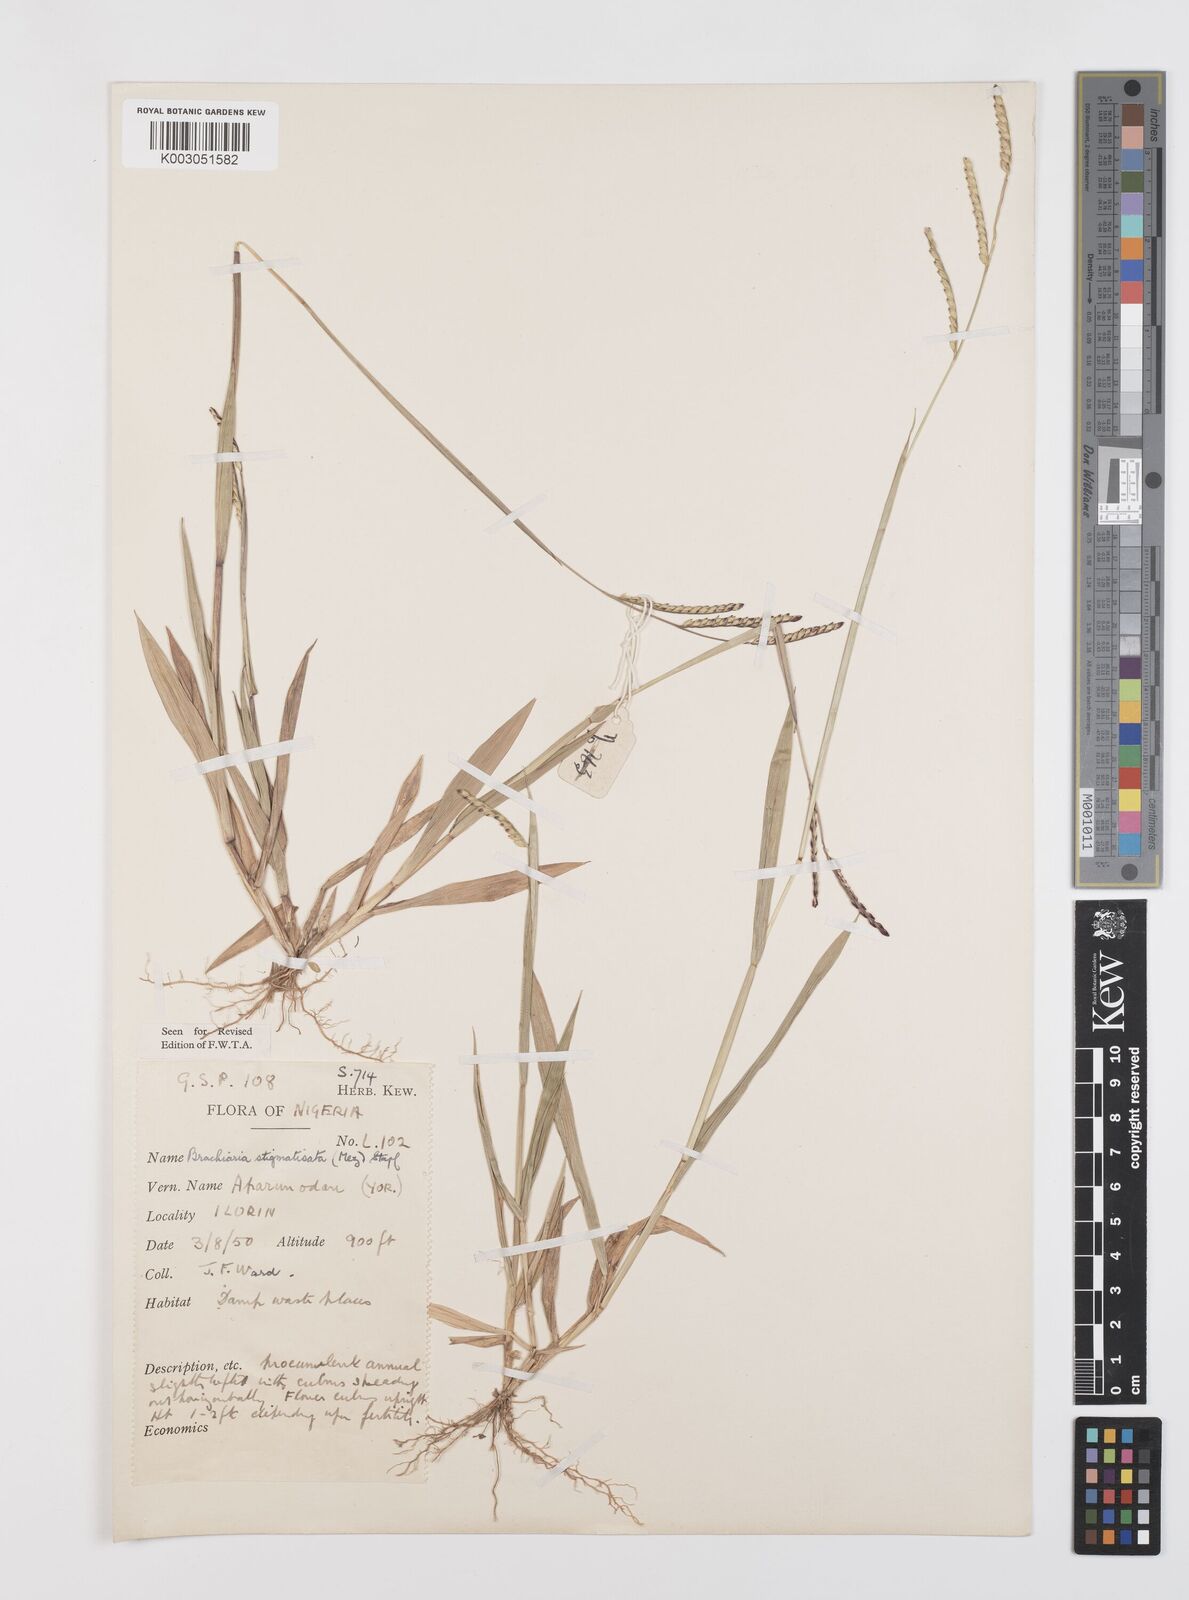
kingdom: Plantae
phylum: Tracheophyta
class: Liliopsida
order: Poales
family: Poaceae
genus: Urochloa
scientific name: Urochloa stigmatisata
